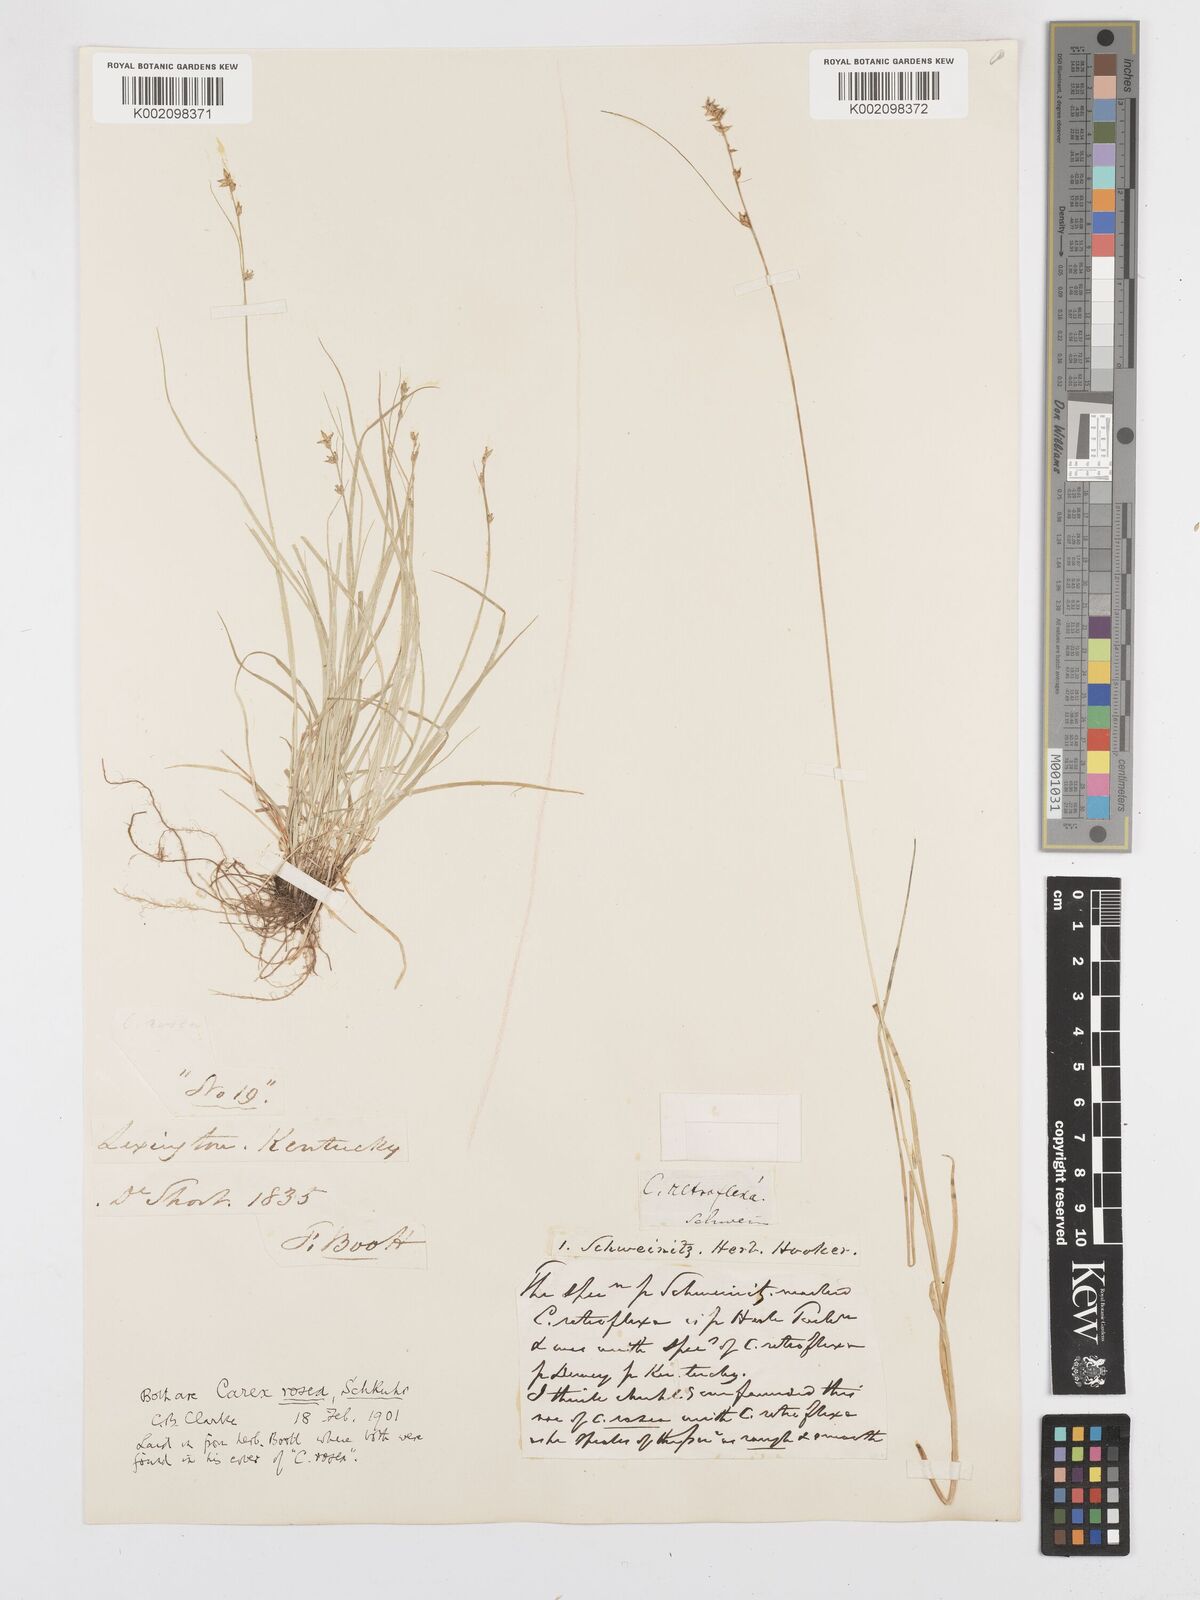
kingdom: Plantae
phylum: Tracheophyta
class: Liliopsida
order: Poales
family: Cyperaceae
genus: Carex
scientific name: Carex rosea
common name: Curly-styled wood sedge
